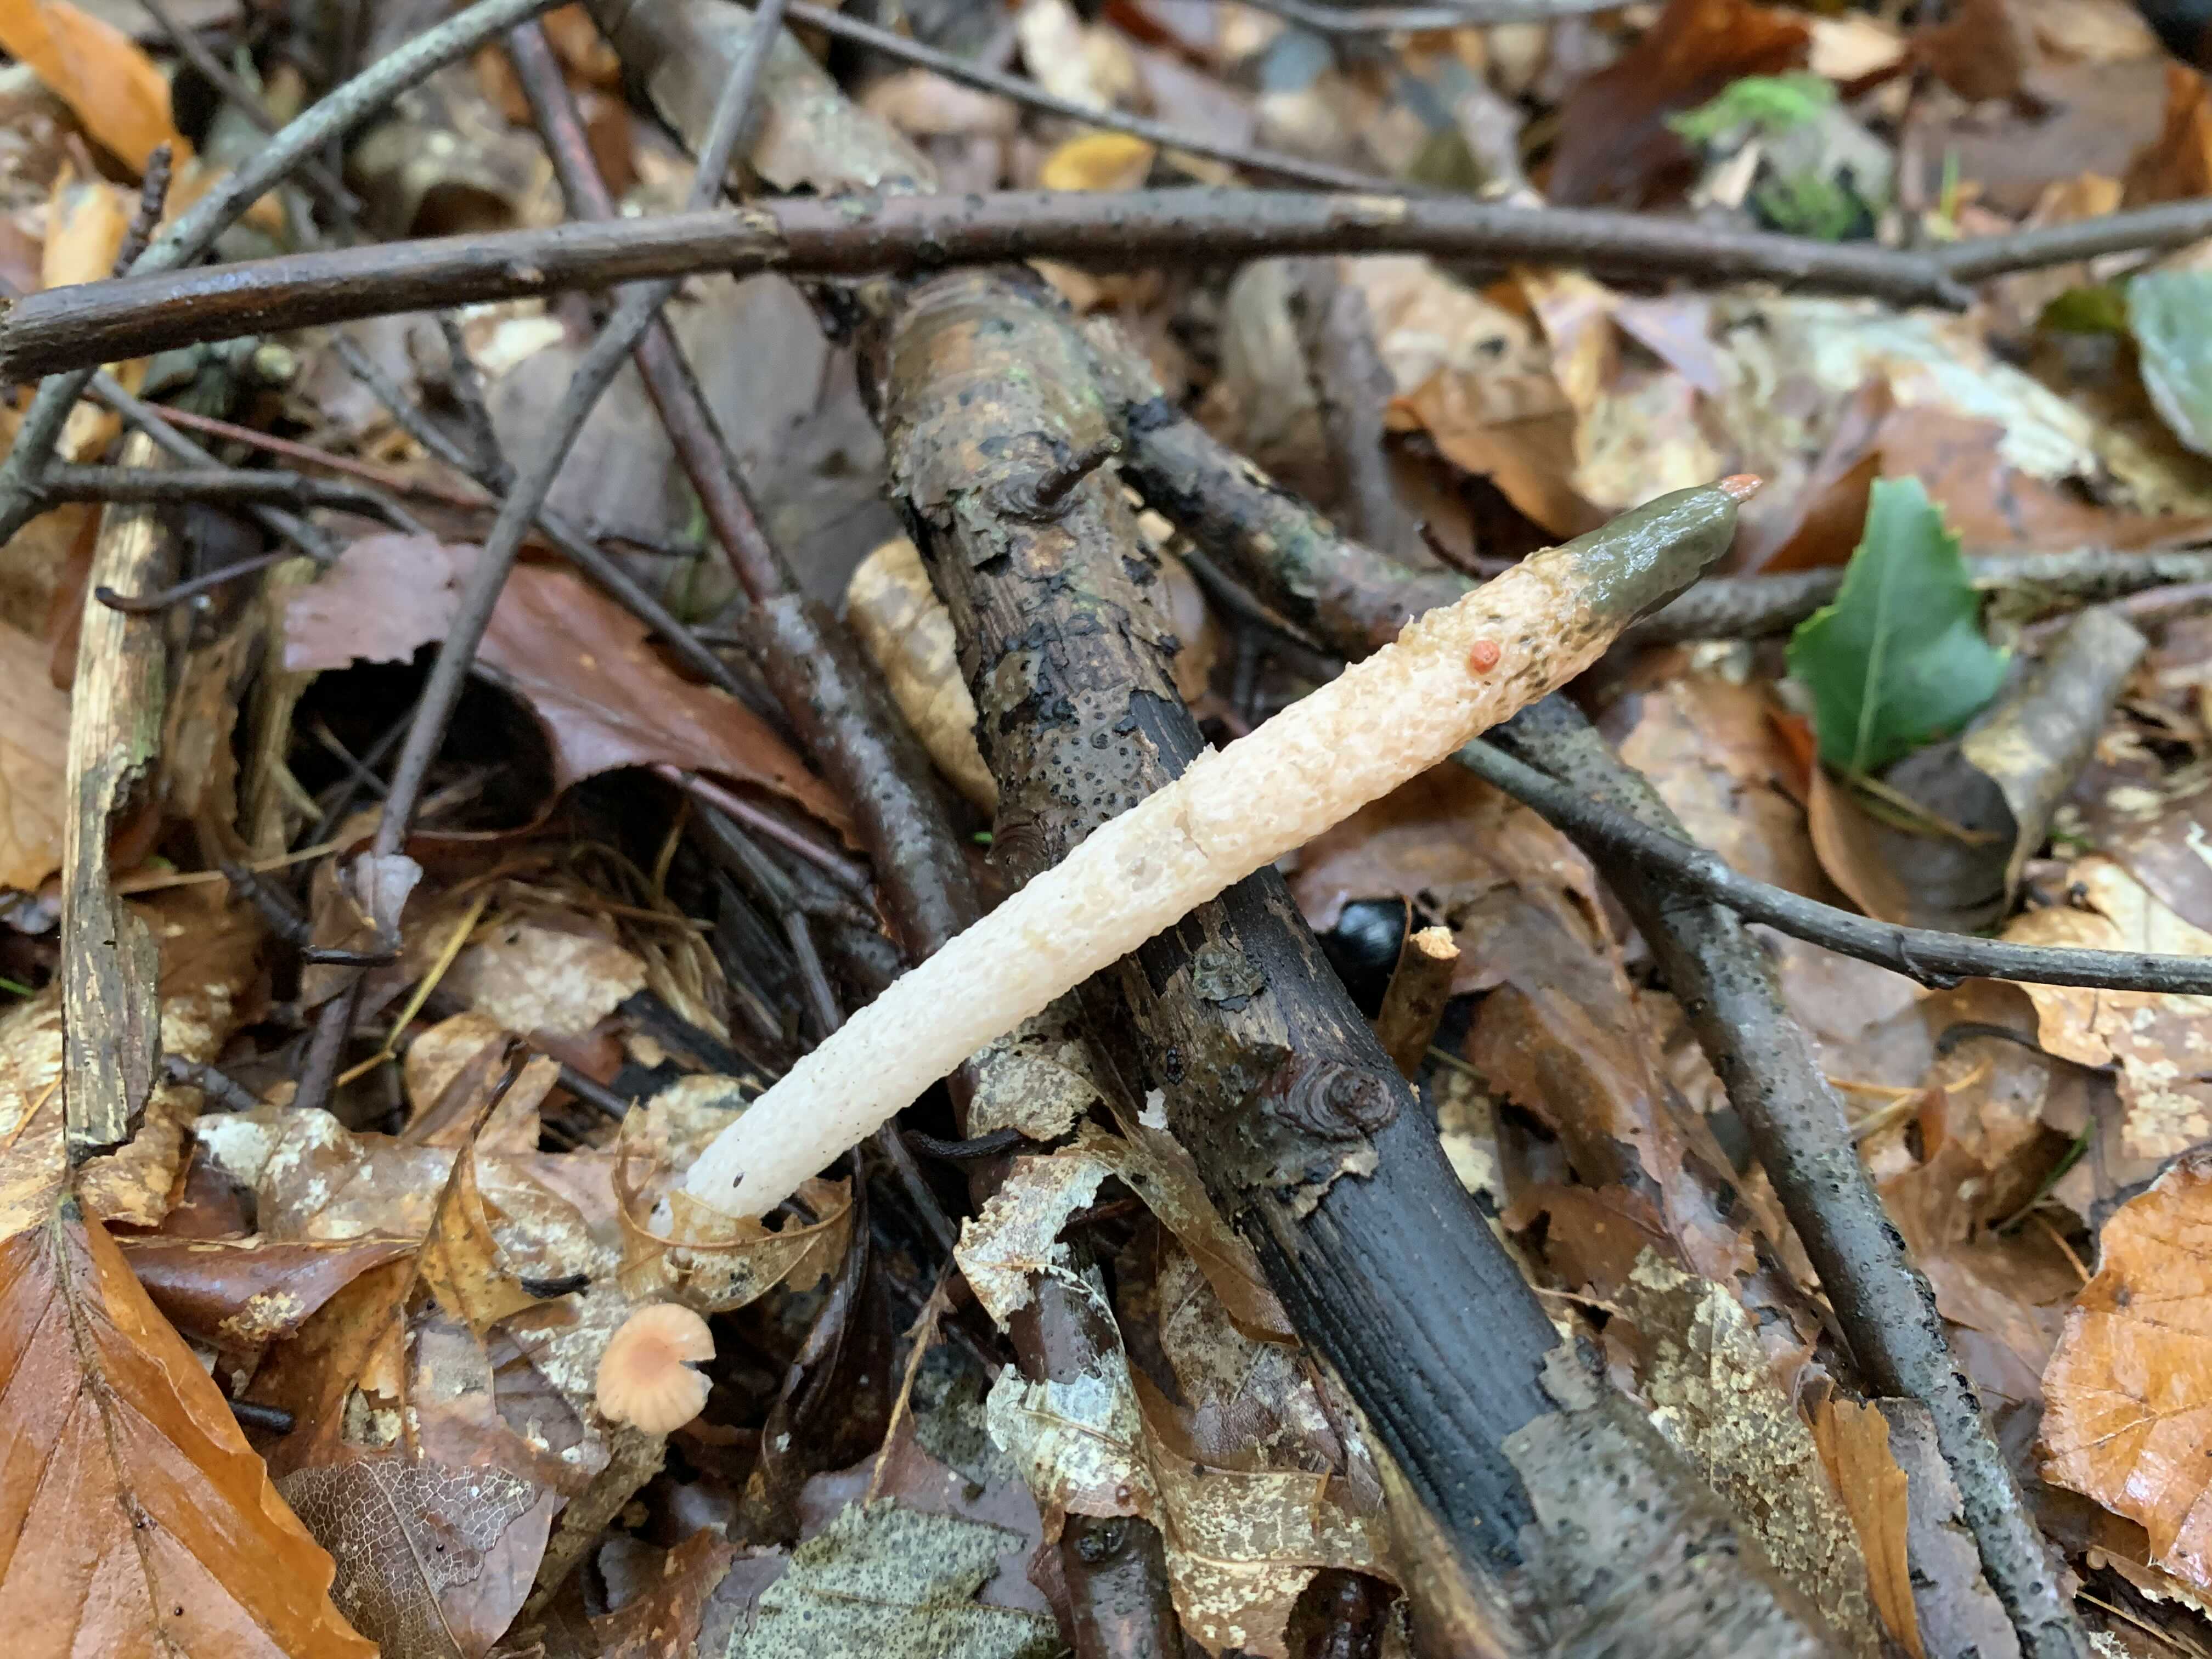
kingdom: Fungi
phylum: Basidiomycota
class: Agaricomycetes
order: Phallales
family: Phallaceae
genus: Mutinus
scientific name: Mutinus caninus
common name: hunde-stinksvamp
